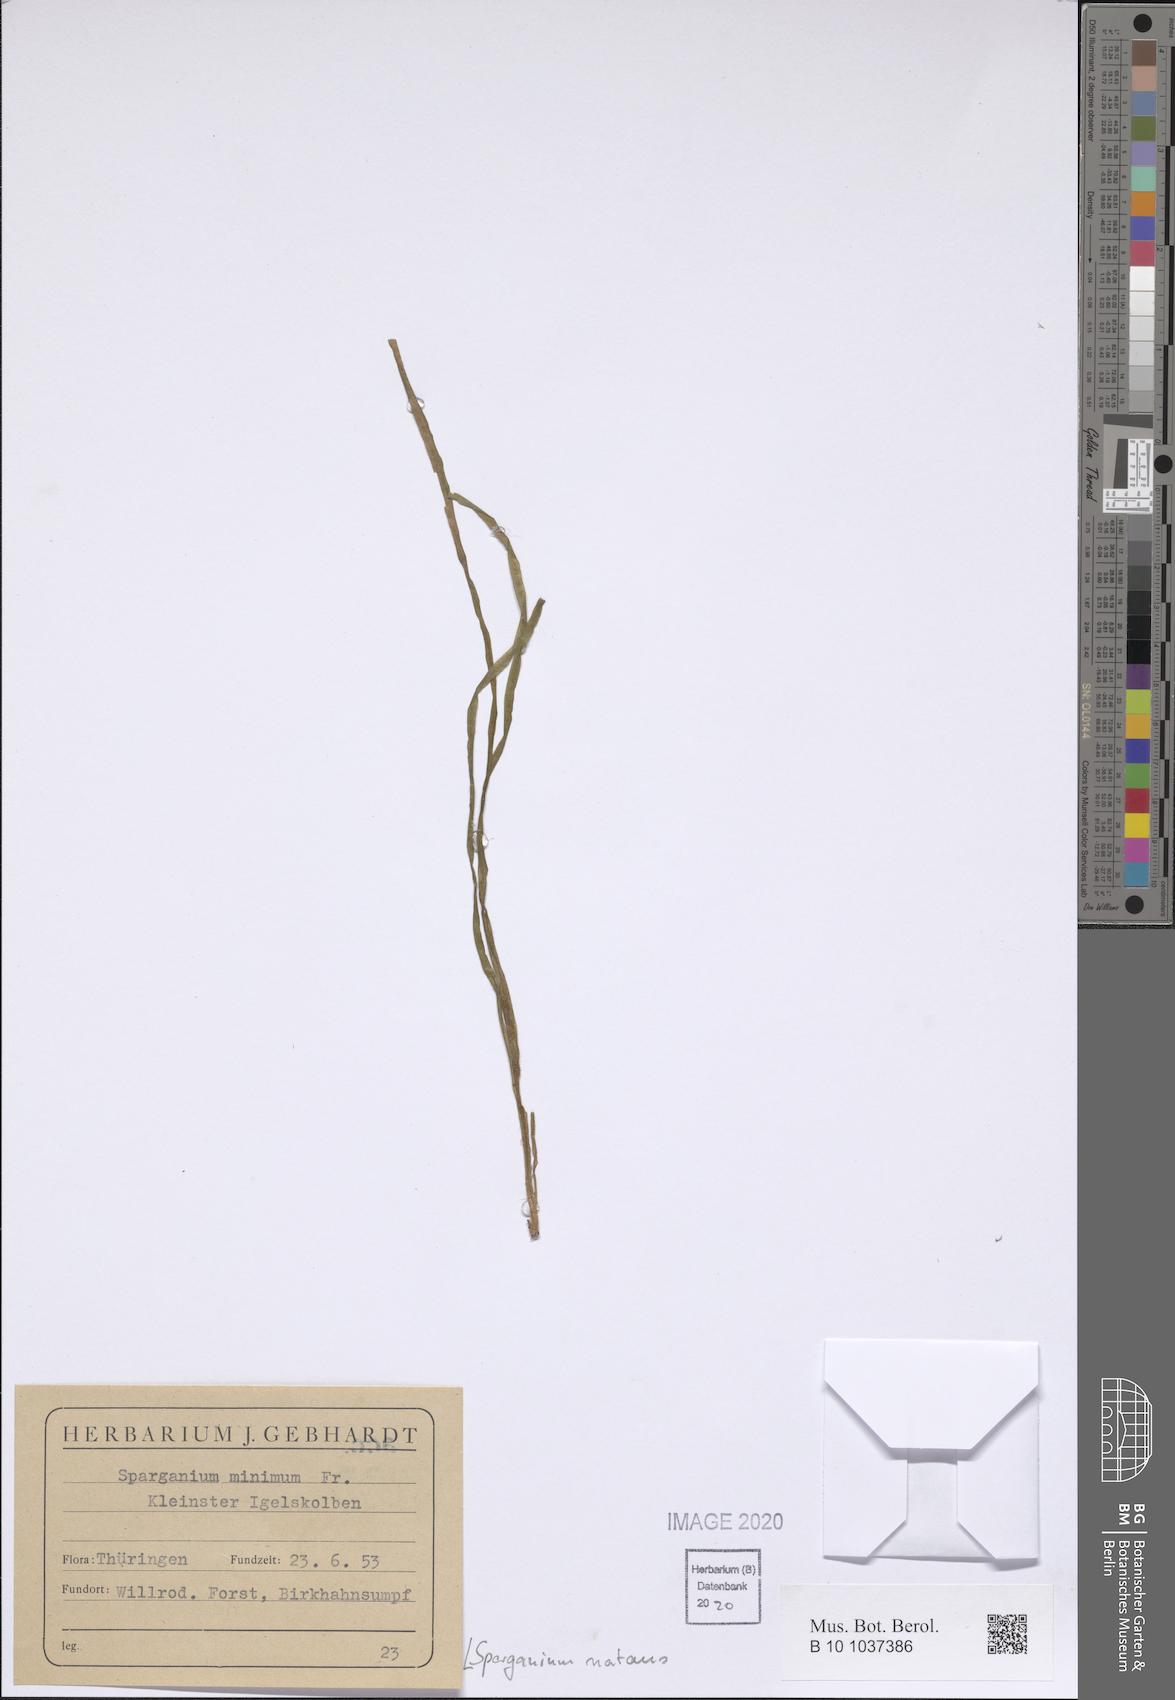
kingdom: Plantae
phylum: Tracheophyta
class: Liliopsida
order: Poales
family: Typhaceae
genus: Sparganium
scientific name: Sparganium natans
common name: Least bur-reed
